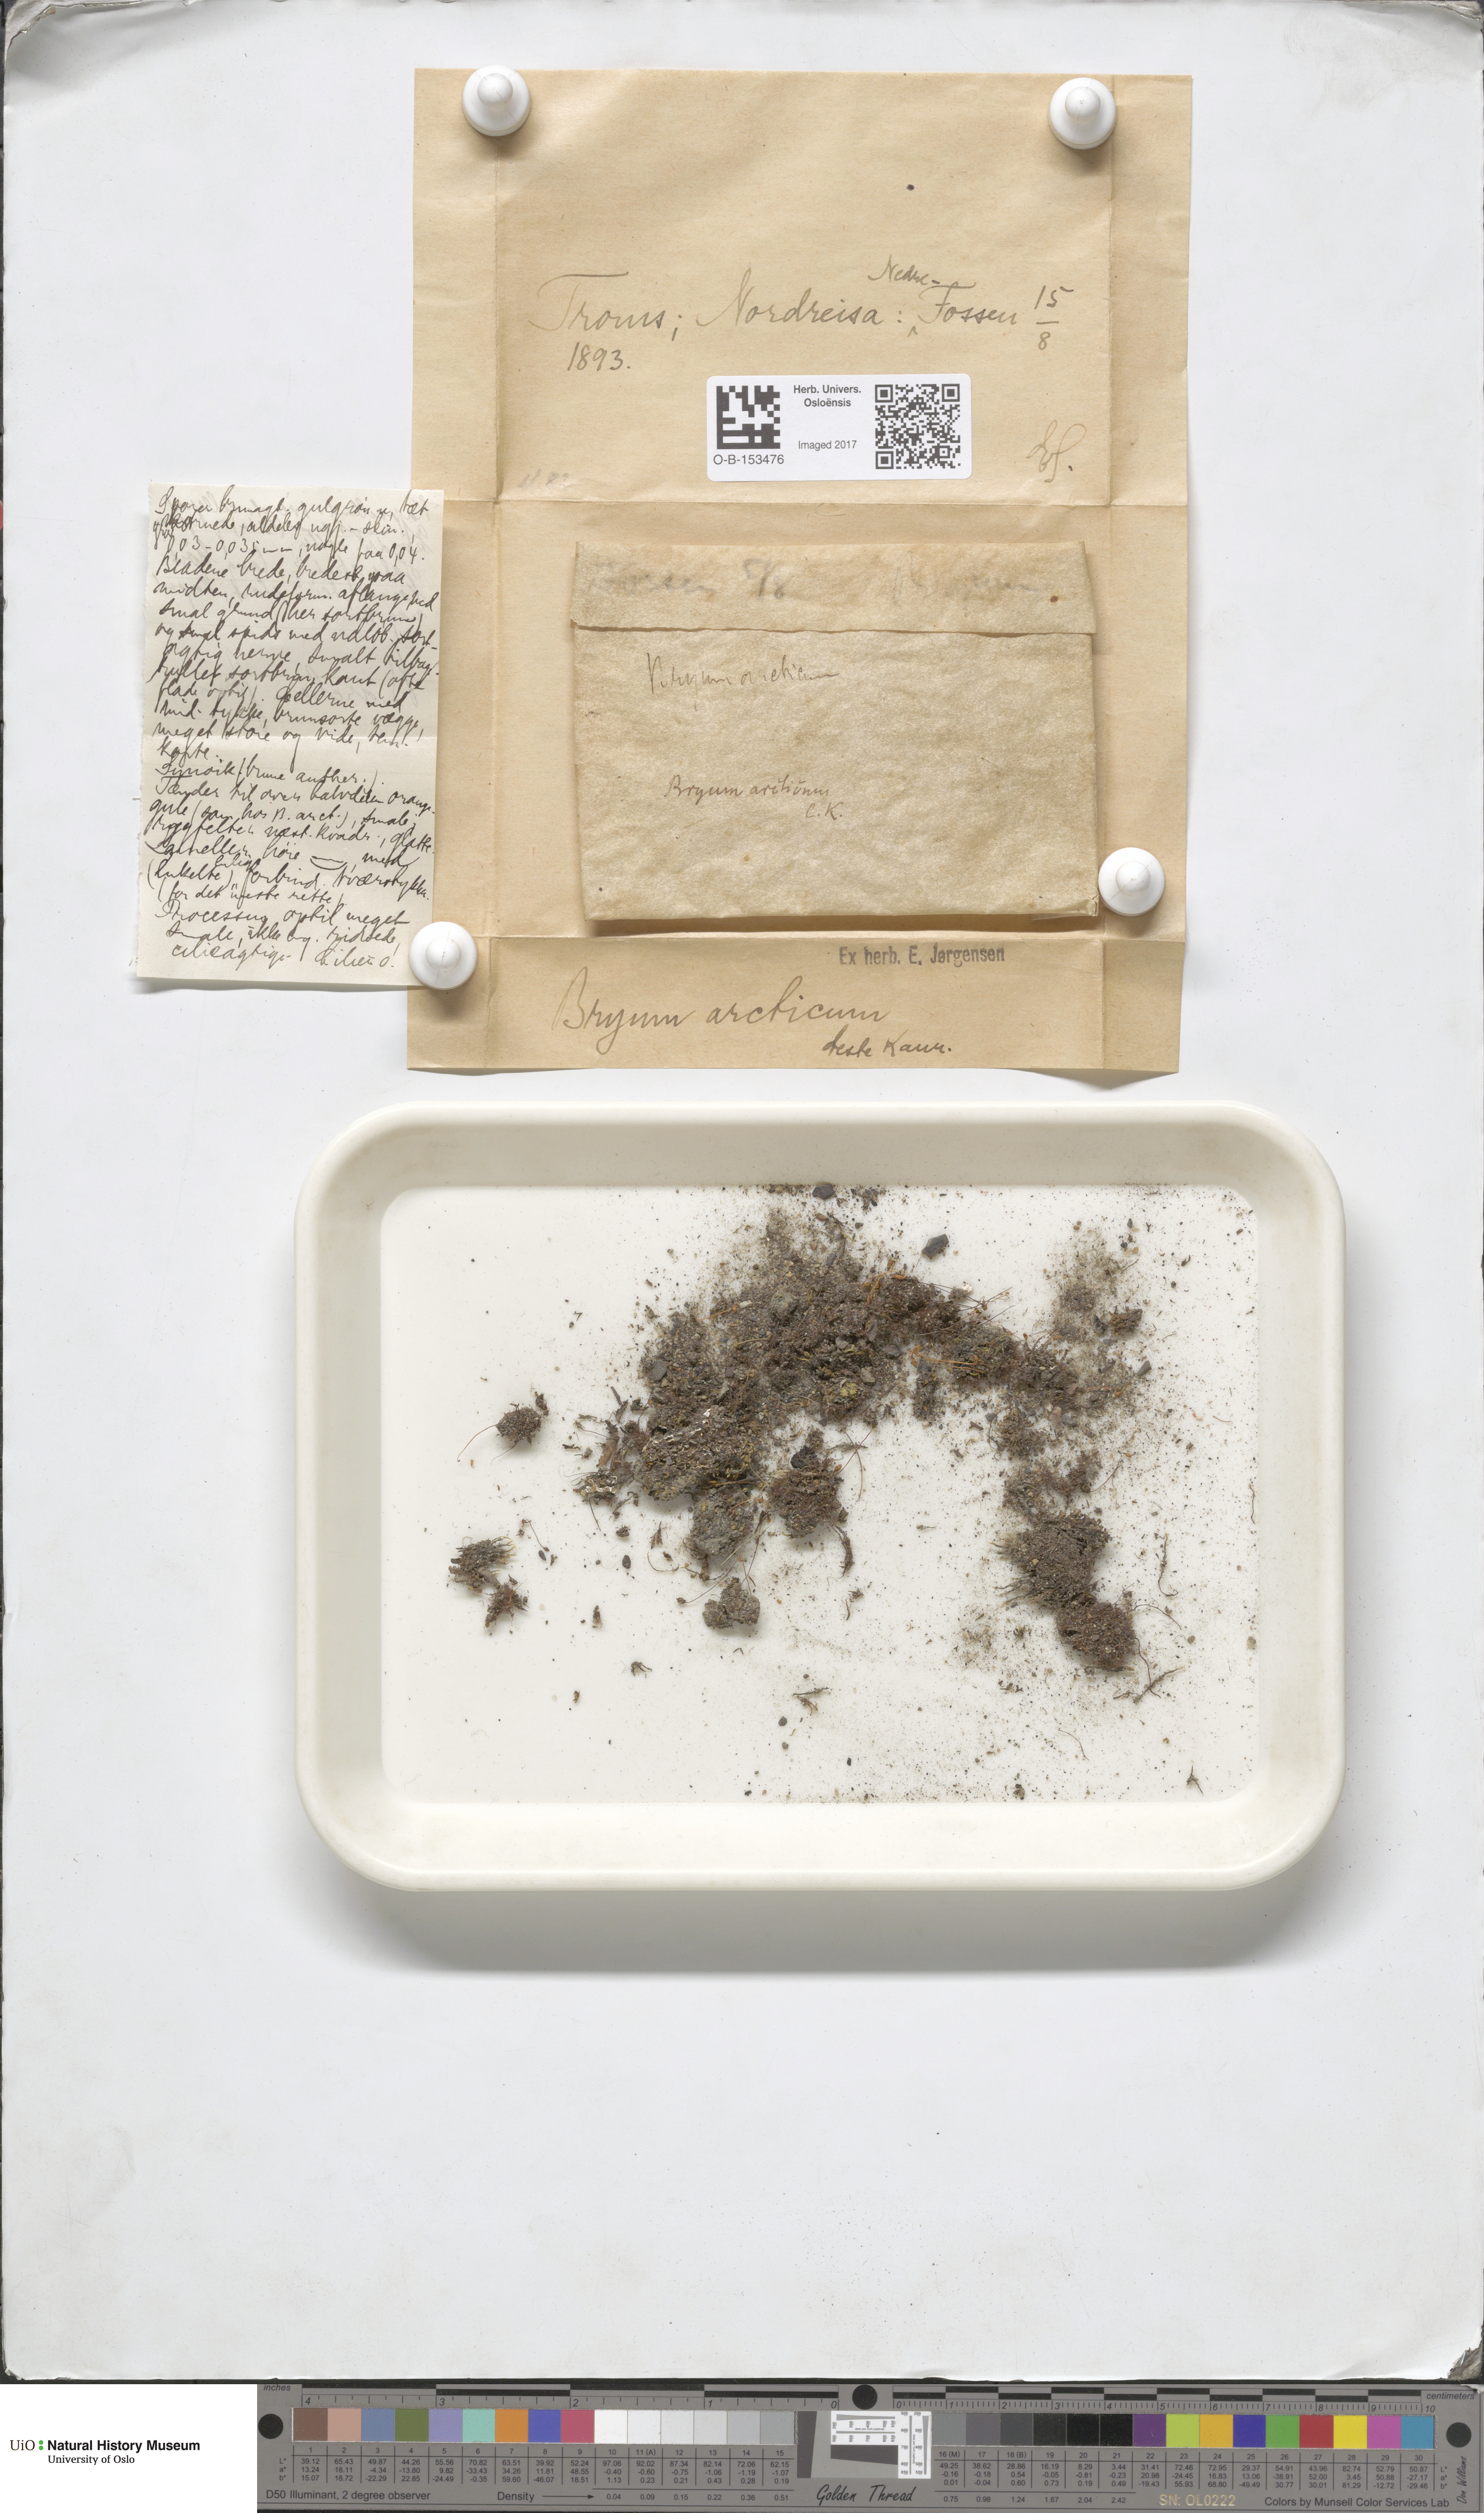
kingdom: Plantae
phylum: Bryophyta
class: Bryopsida
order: Bryales
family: Bryaceae
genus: Ptychostomum
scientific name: Ptychostomum arcticum
